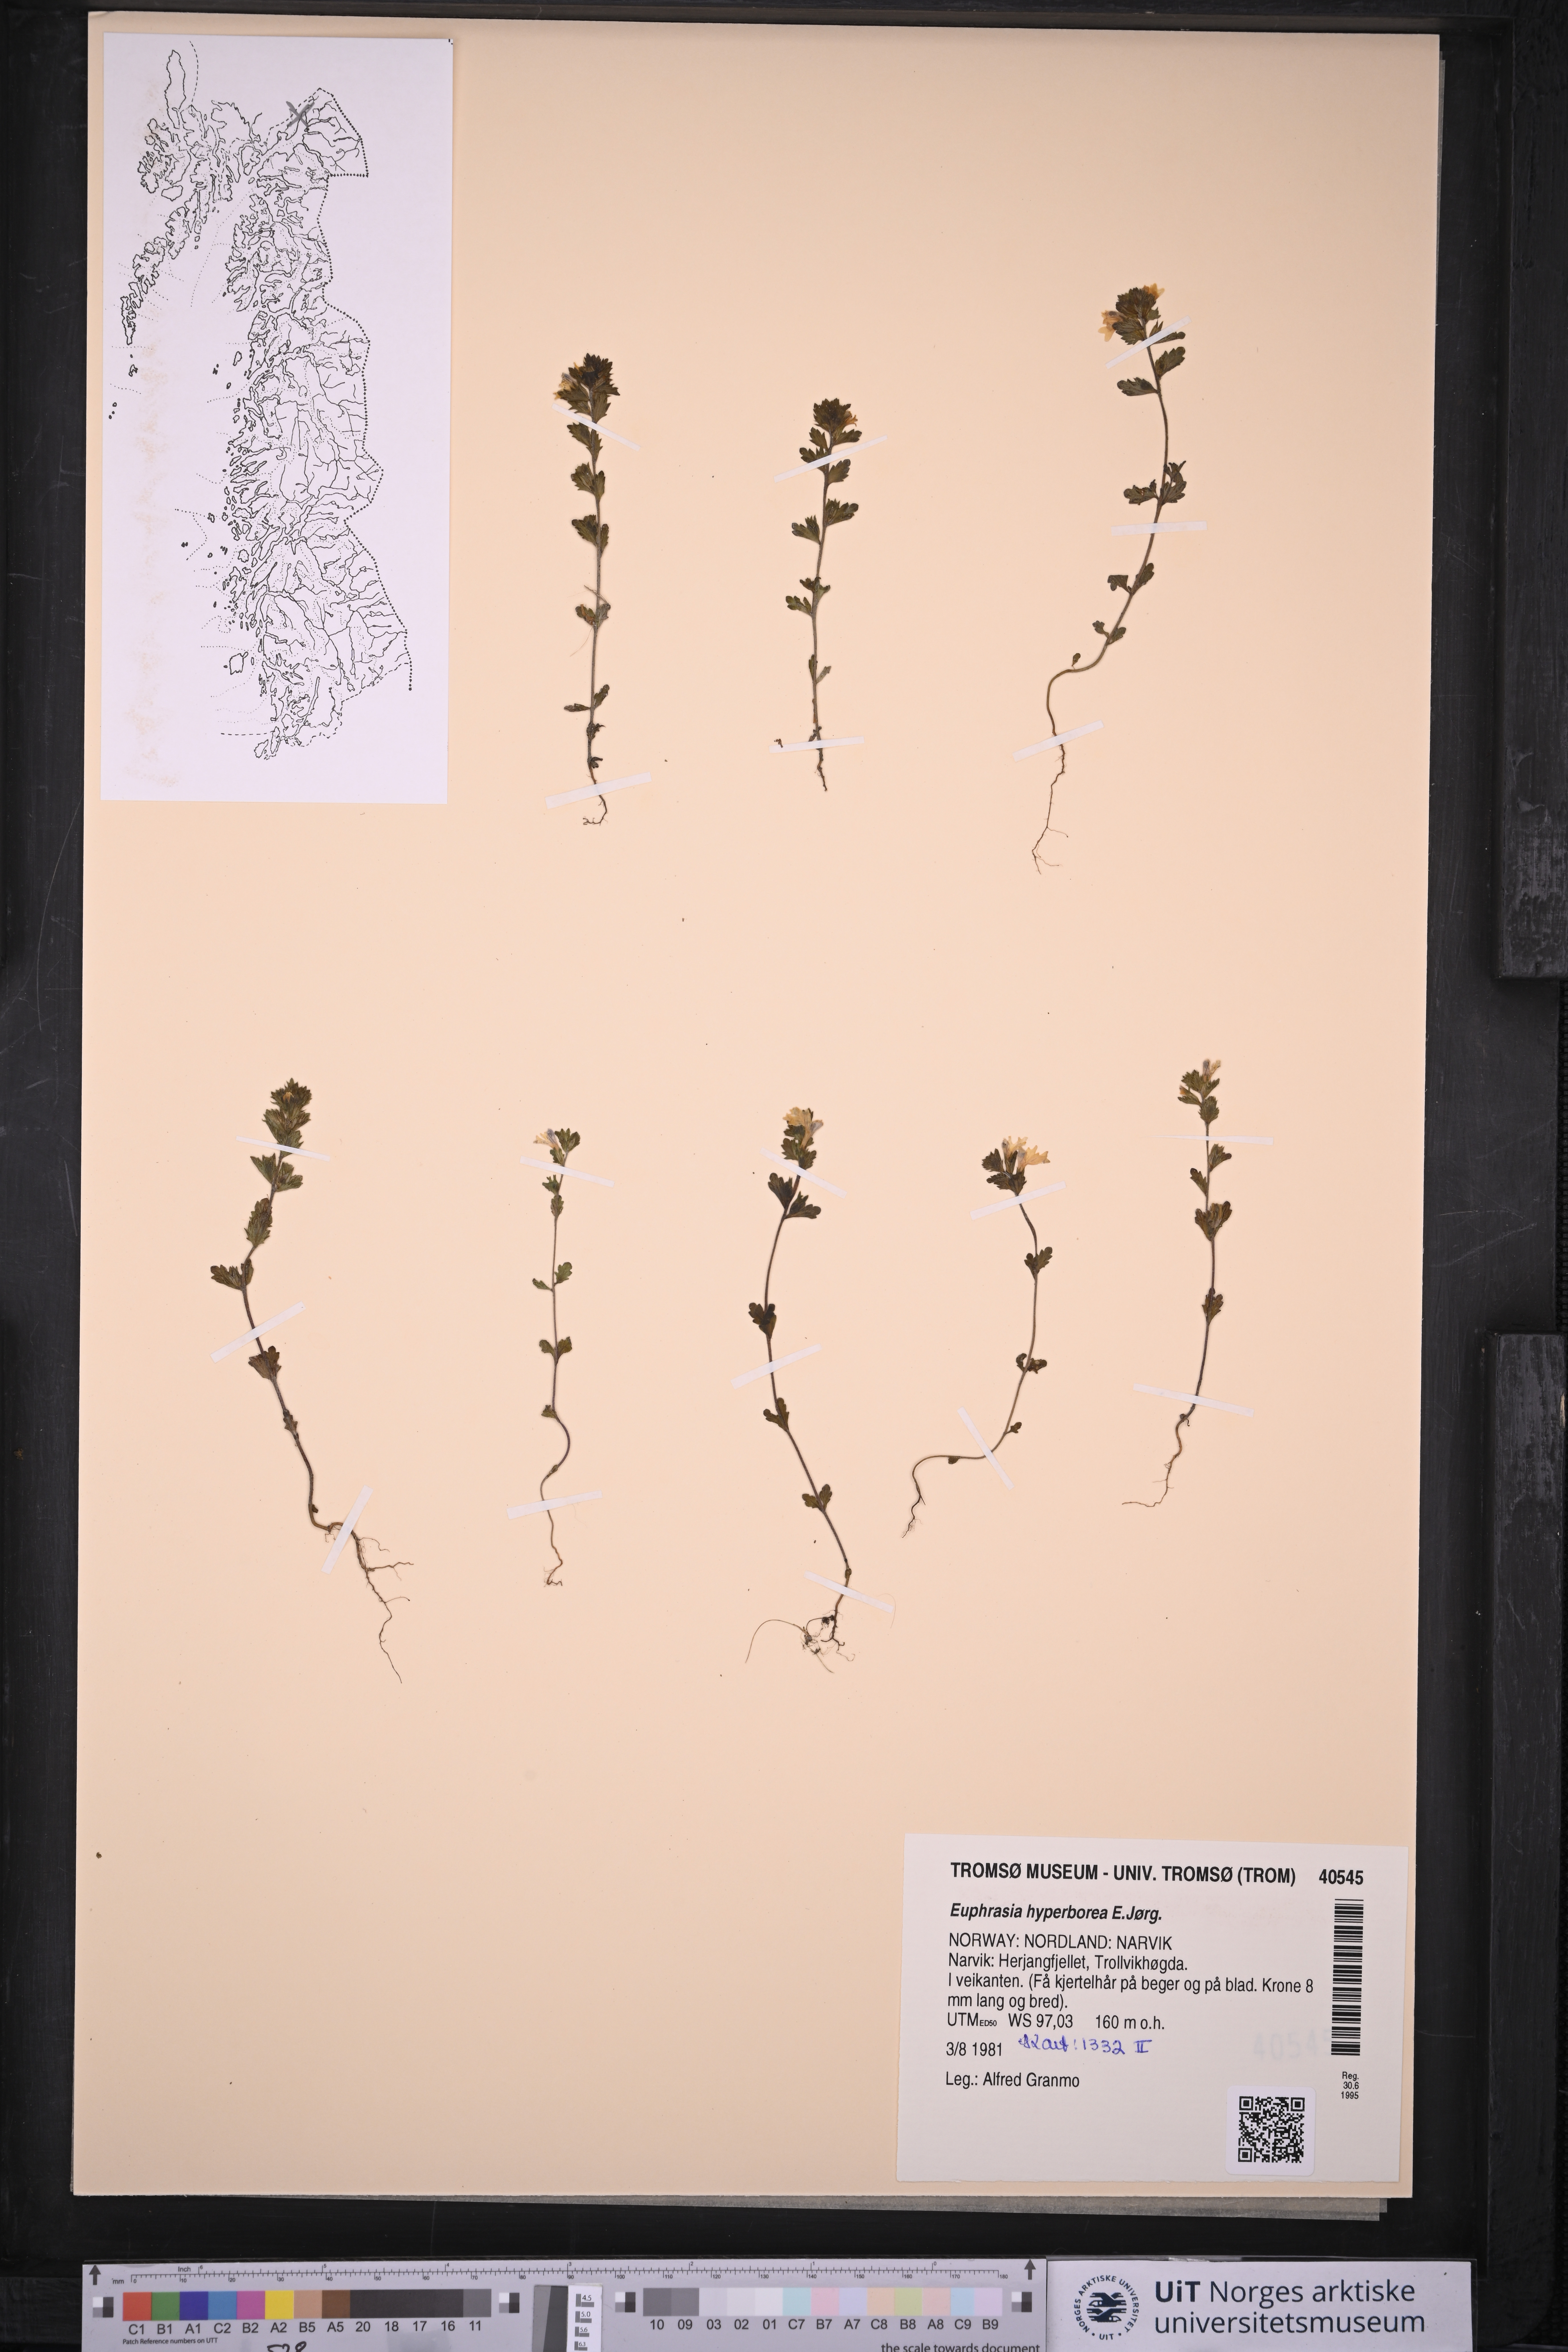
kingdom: Plantae
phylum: Tracheophyta
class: Magnoliopsida
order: Lamiales
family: Orobanchaceae
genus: Euphrasia
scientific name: Euphrasia hyperborea
